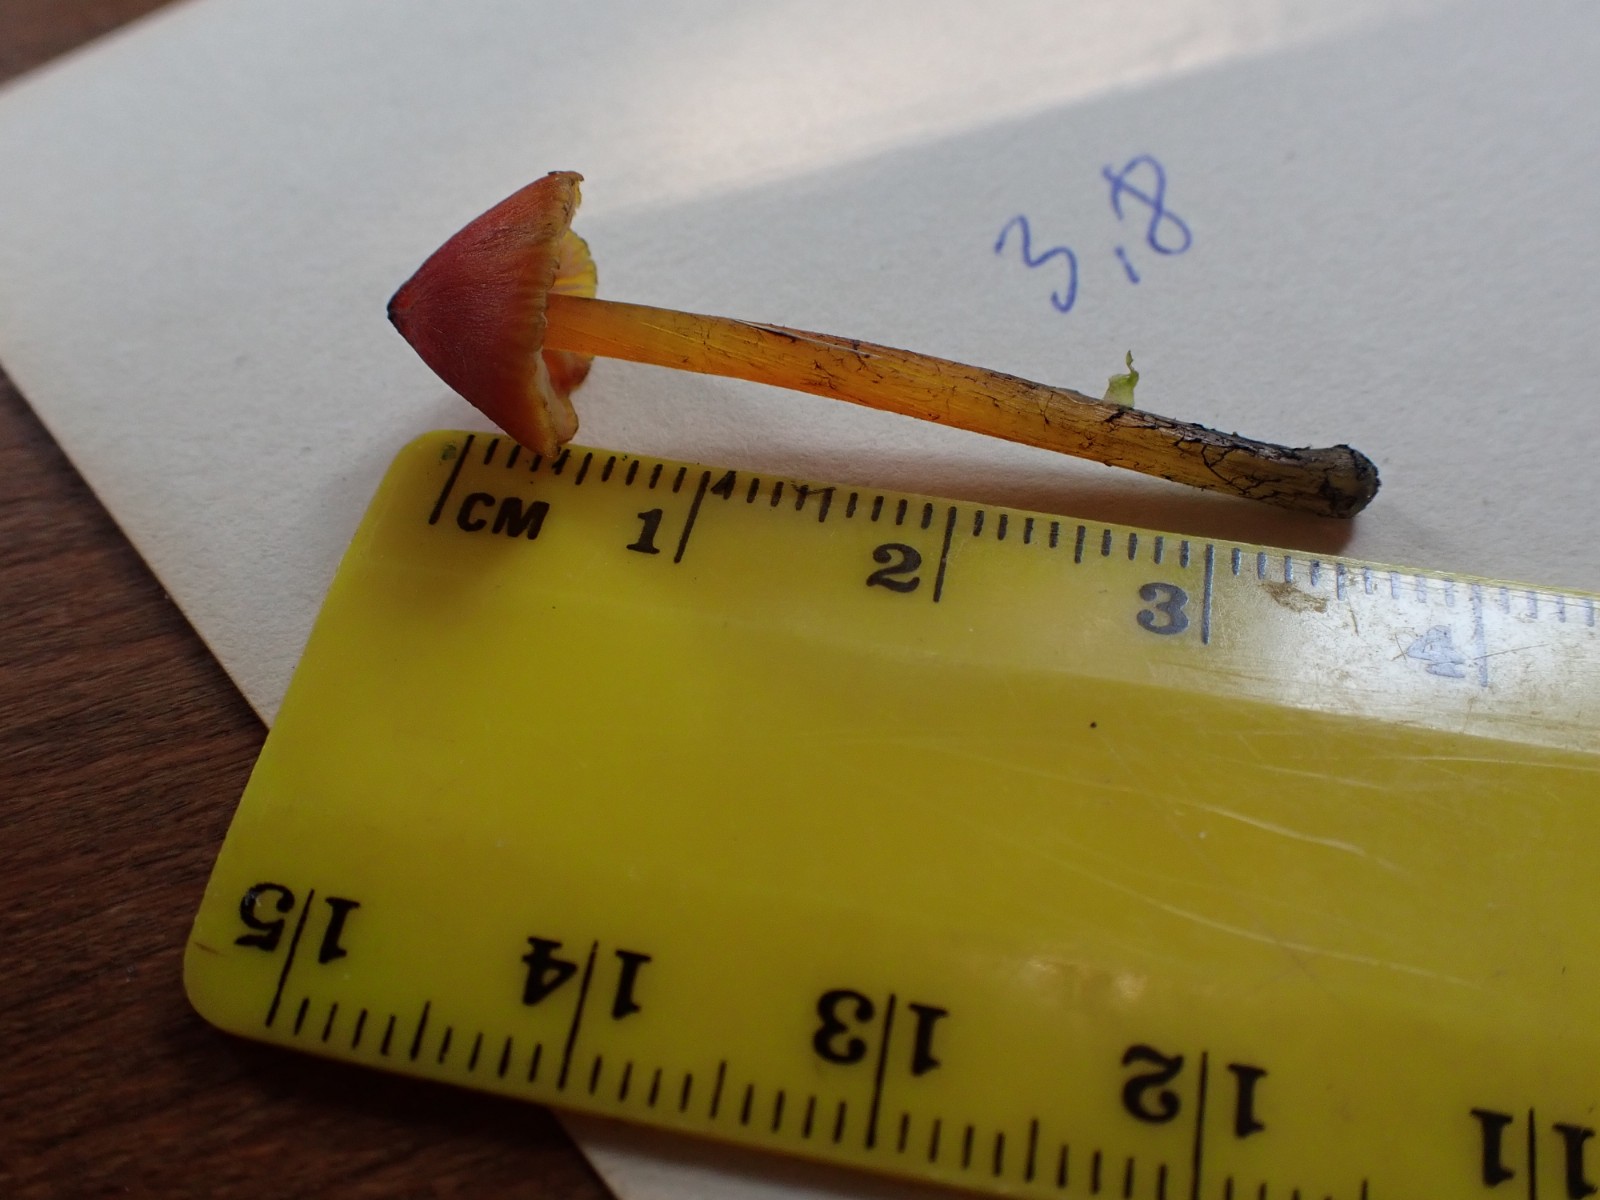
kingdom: Fungi
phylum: Basidiomycota
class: Agaricomycetes
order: Agaricales
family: Hygrophoraceae
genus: Hygrocybe
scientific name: Hygrocybe conica
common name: kegle-vokshat
